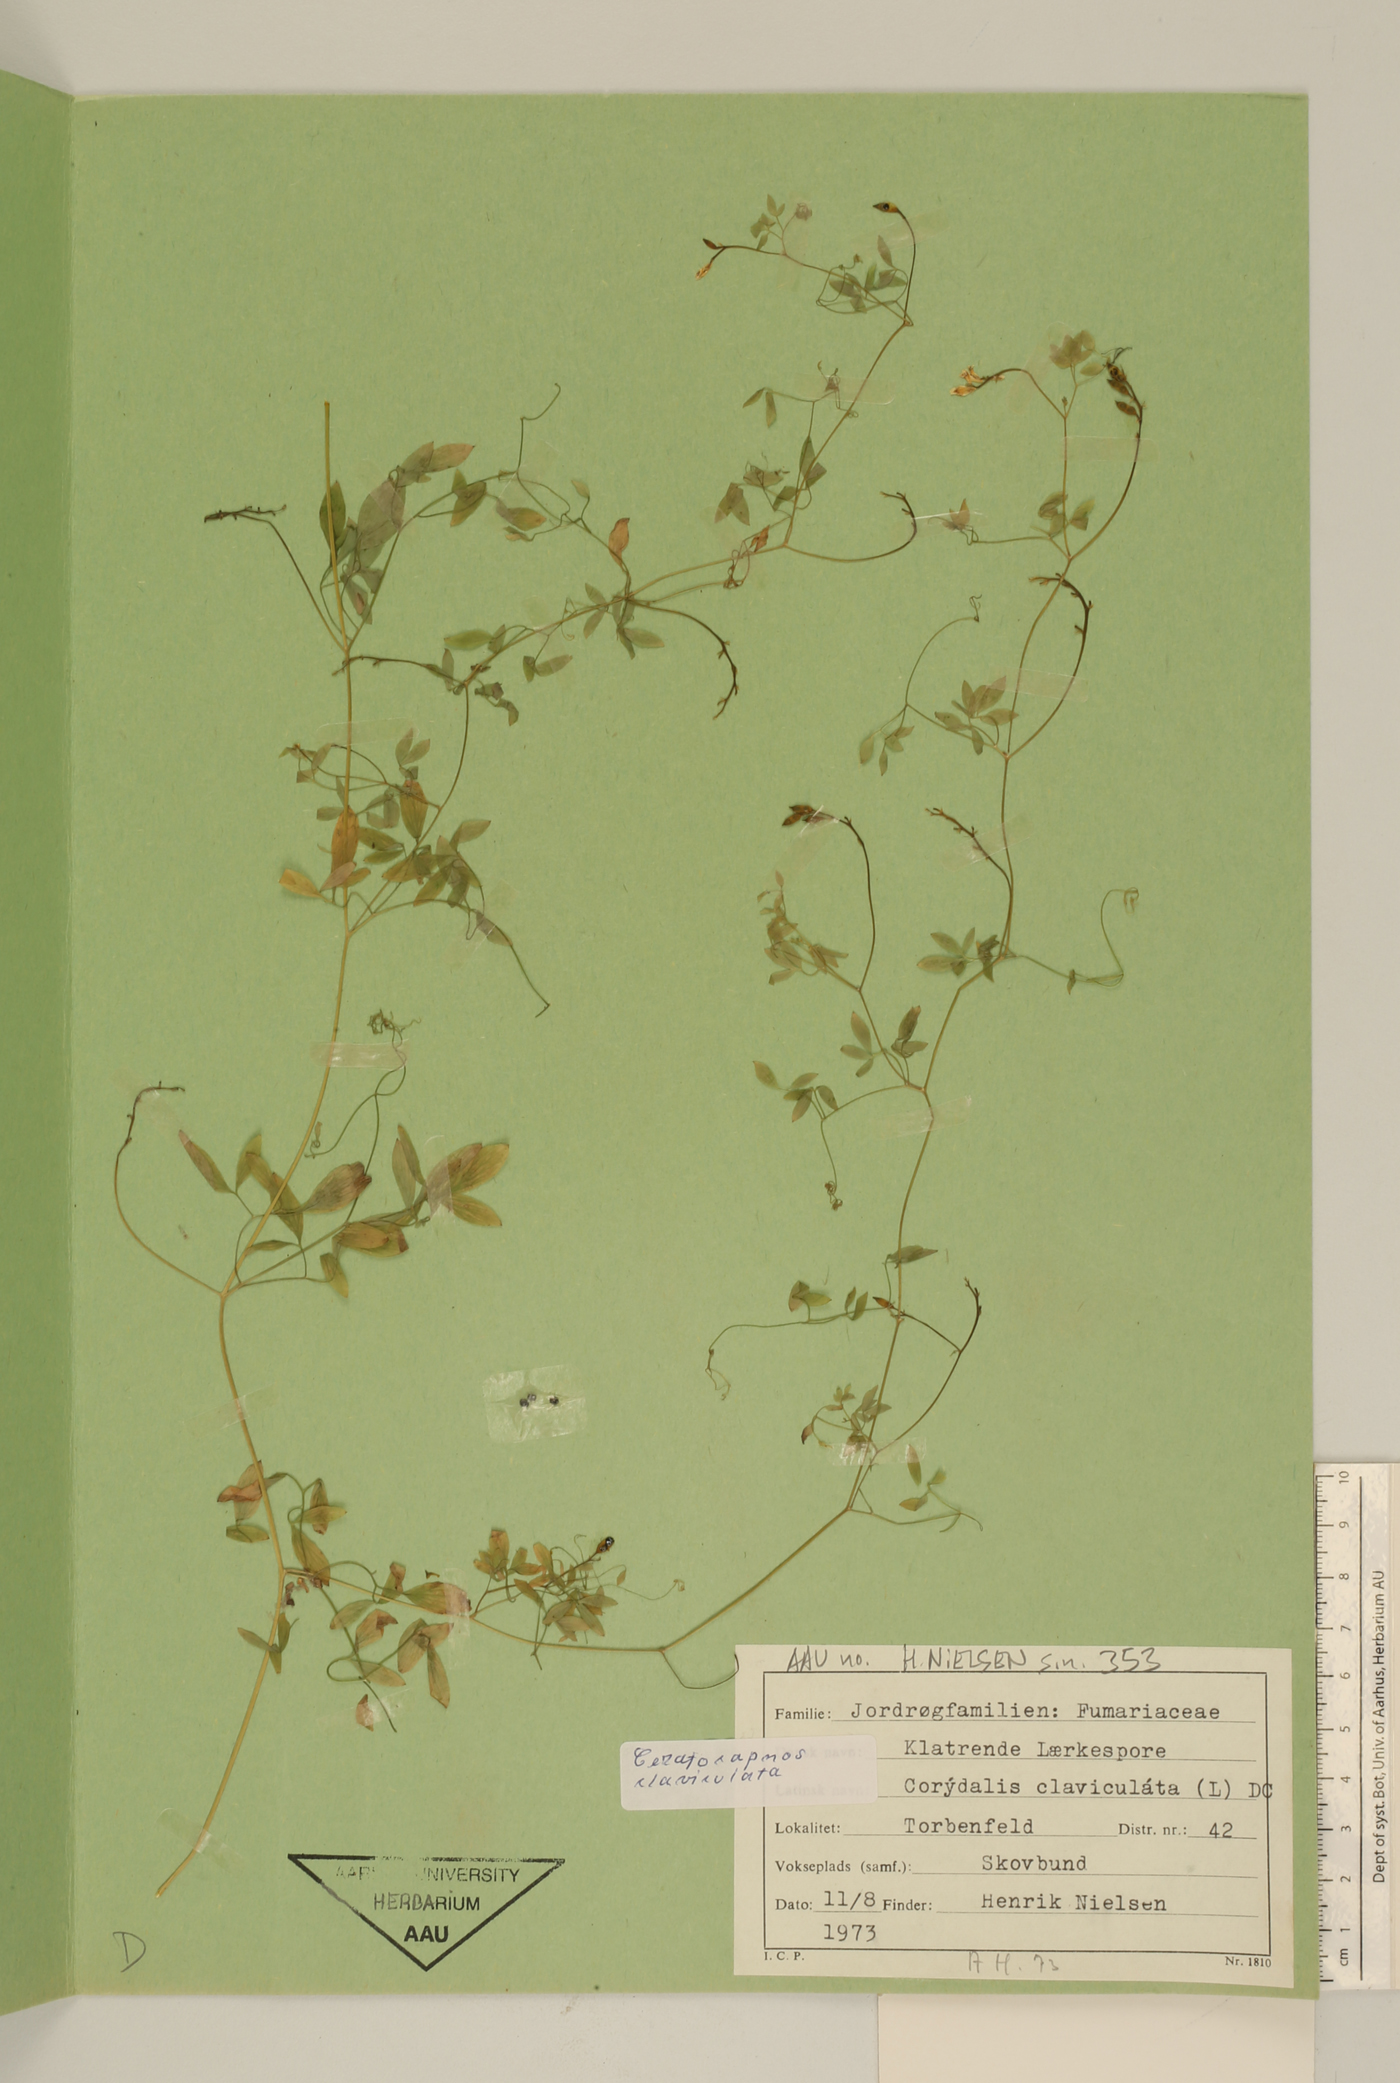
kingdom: Plantae
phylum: Tracheophyta
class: Magnoliopsida
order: Ranunculales
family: Papaveraceae
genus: Ceratocapnos
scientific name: Ceratocapnos claviculata
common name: Climbing corydalis
